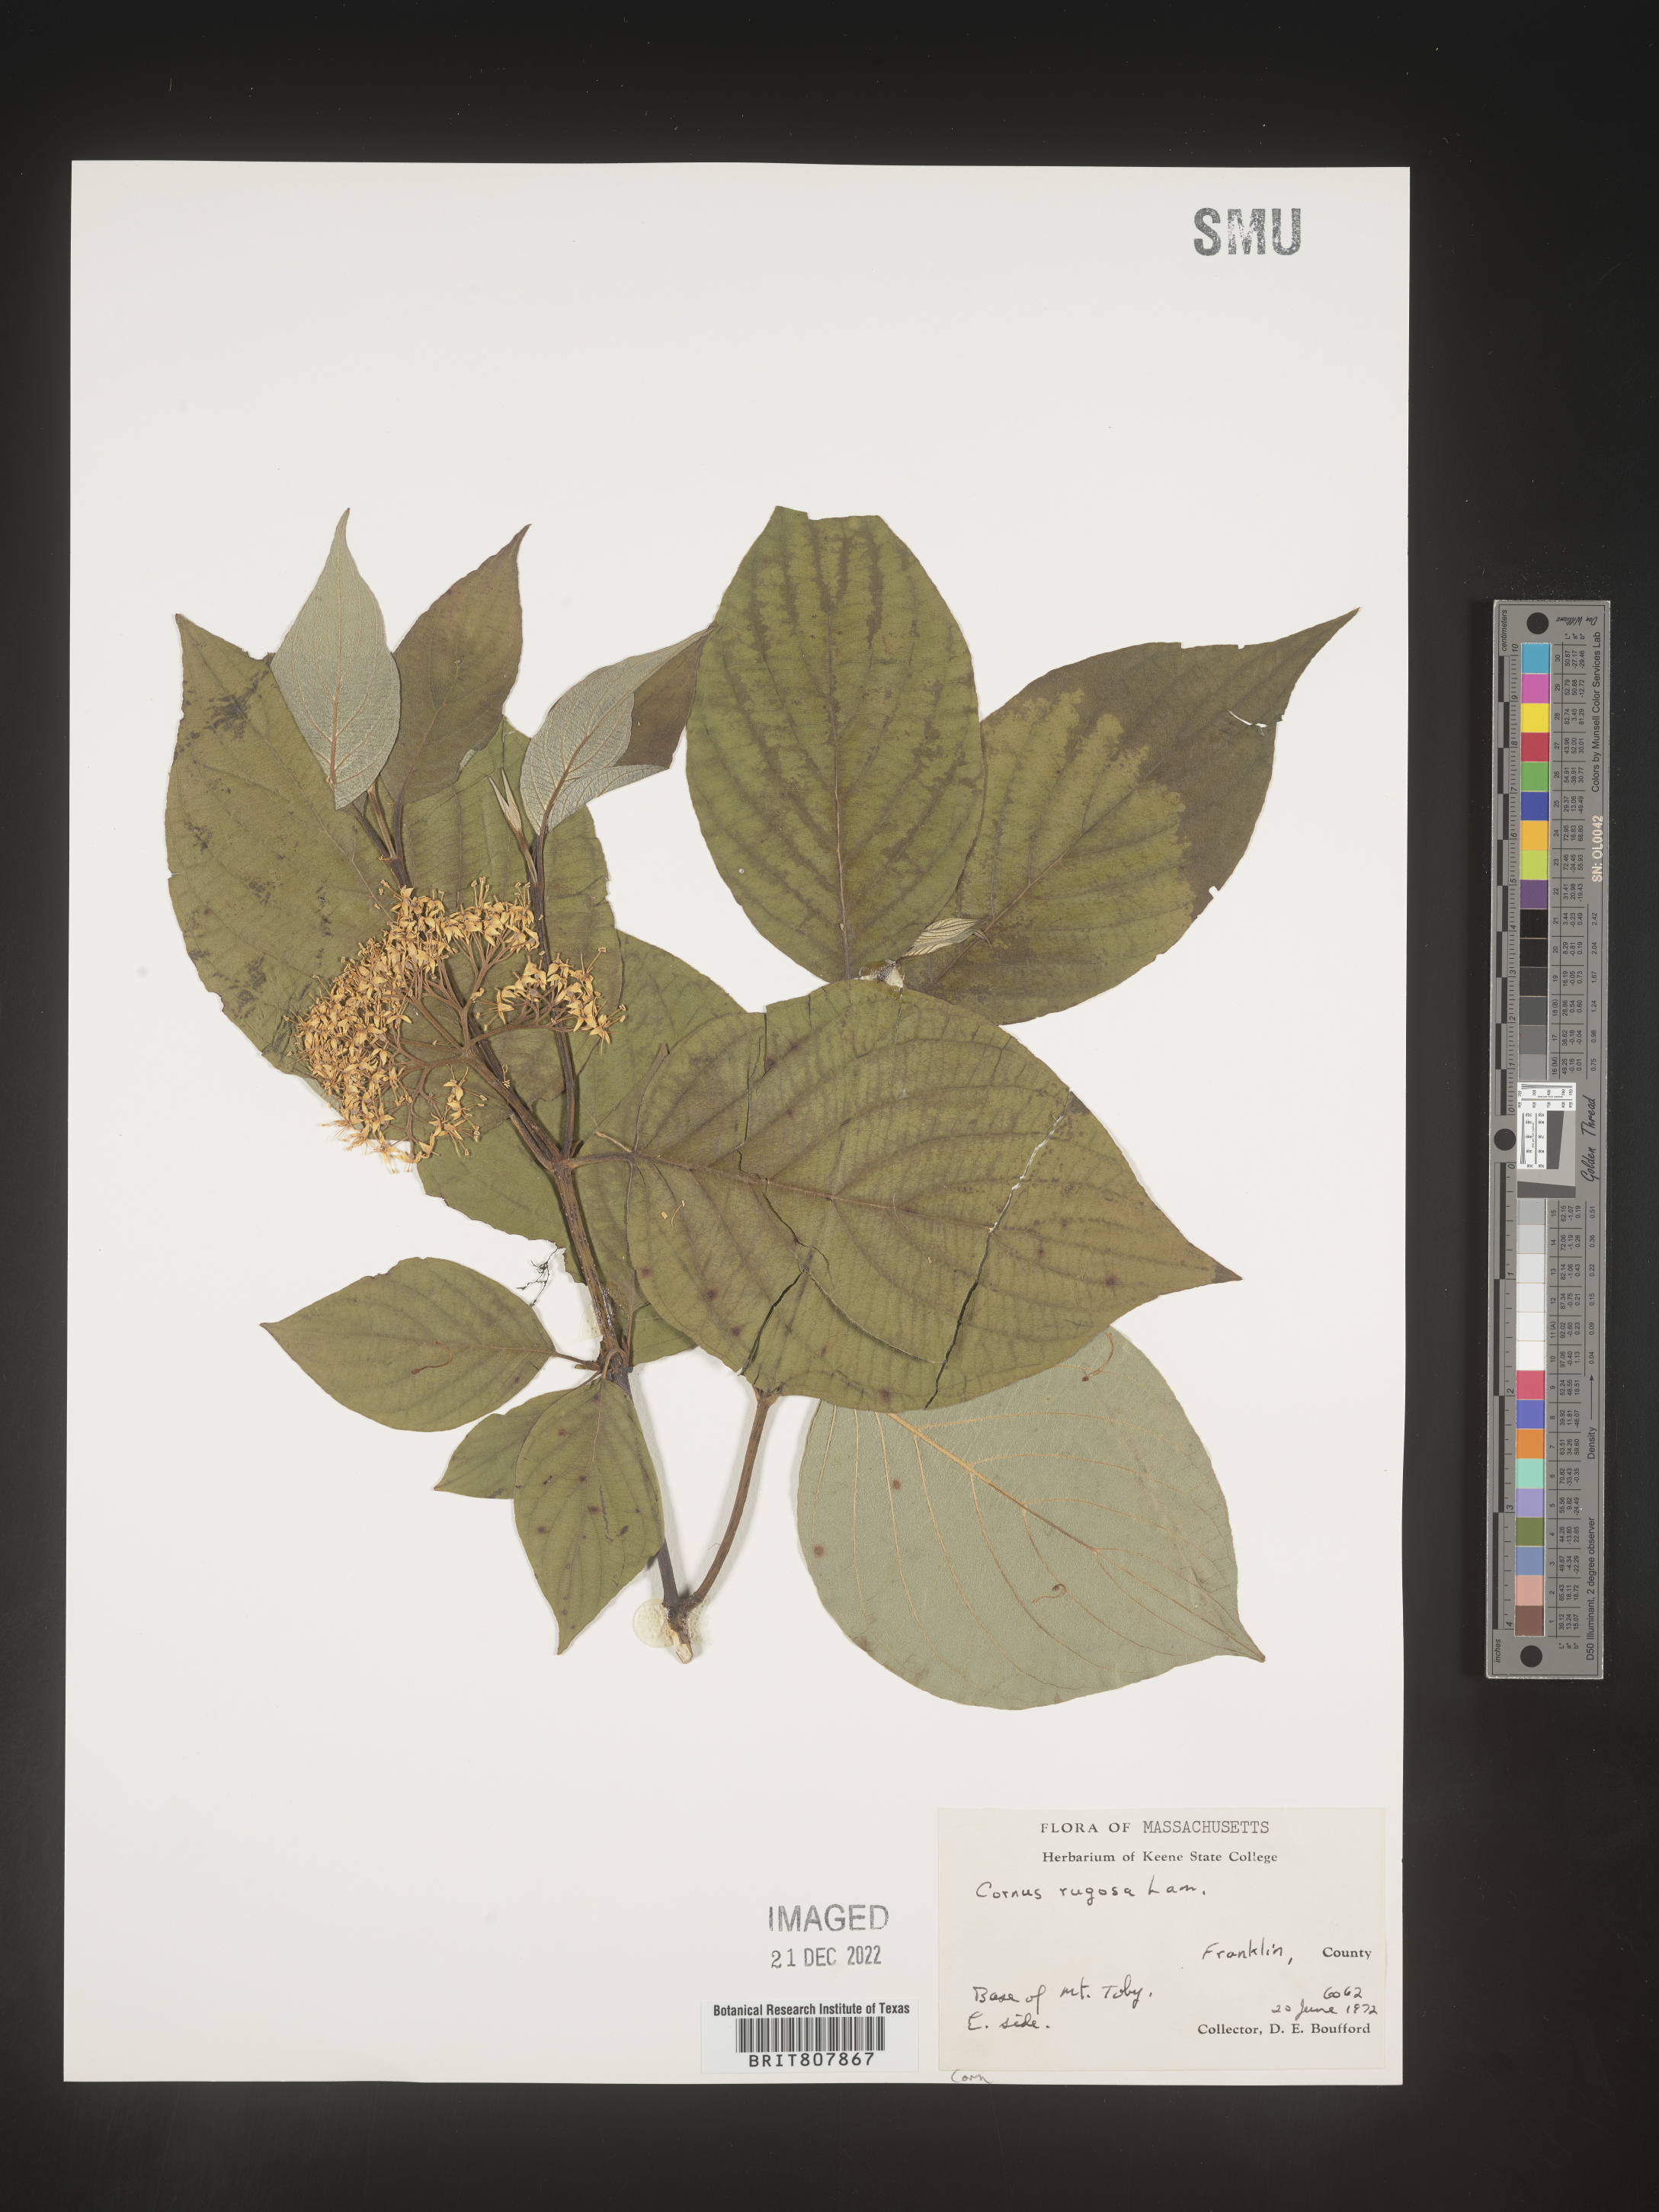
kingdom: Plantae
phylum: Tracheophyta
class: Magnoliopsida
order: Cornales
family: Cornaceae
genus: Cornus
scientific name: Cornus rugosa
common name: Round-leaf dogwood
